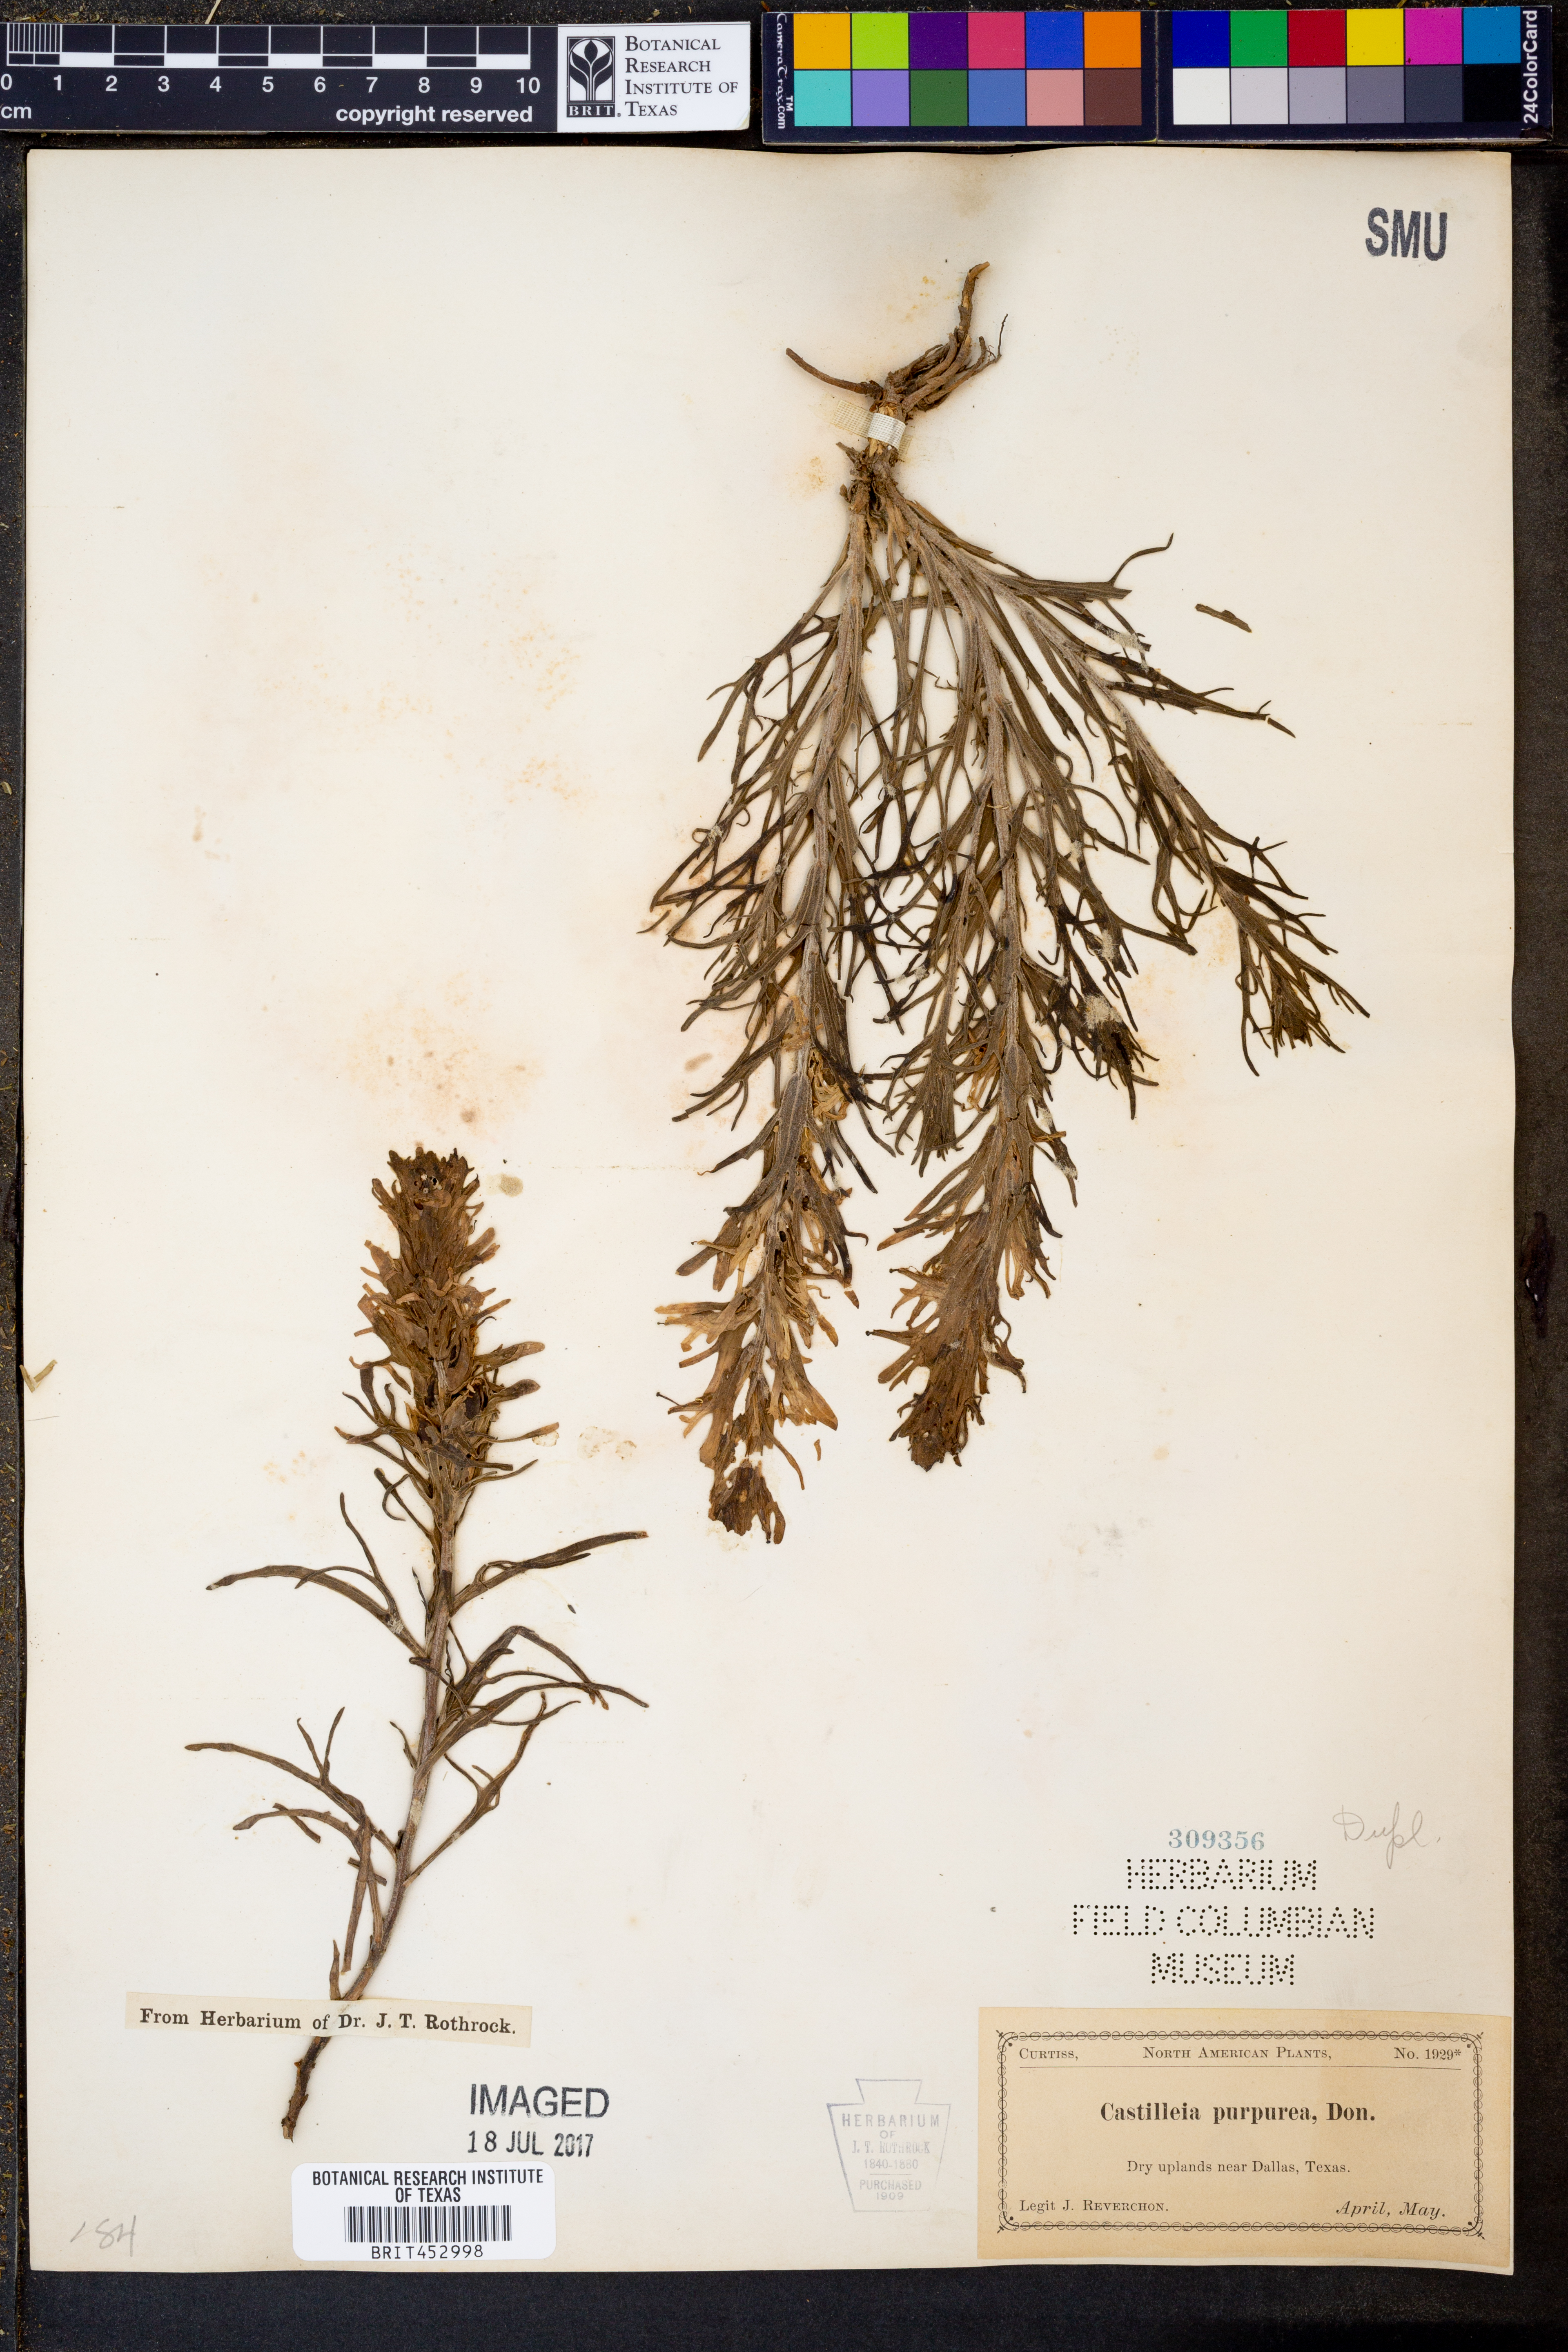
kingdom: Plantae
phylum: Tracheophyta
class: Magnoliopsida
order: Lamiales
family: Orobanchaceae
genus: Castilleja
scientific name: Castilleja purpurea
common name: Plains paintbrush
